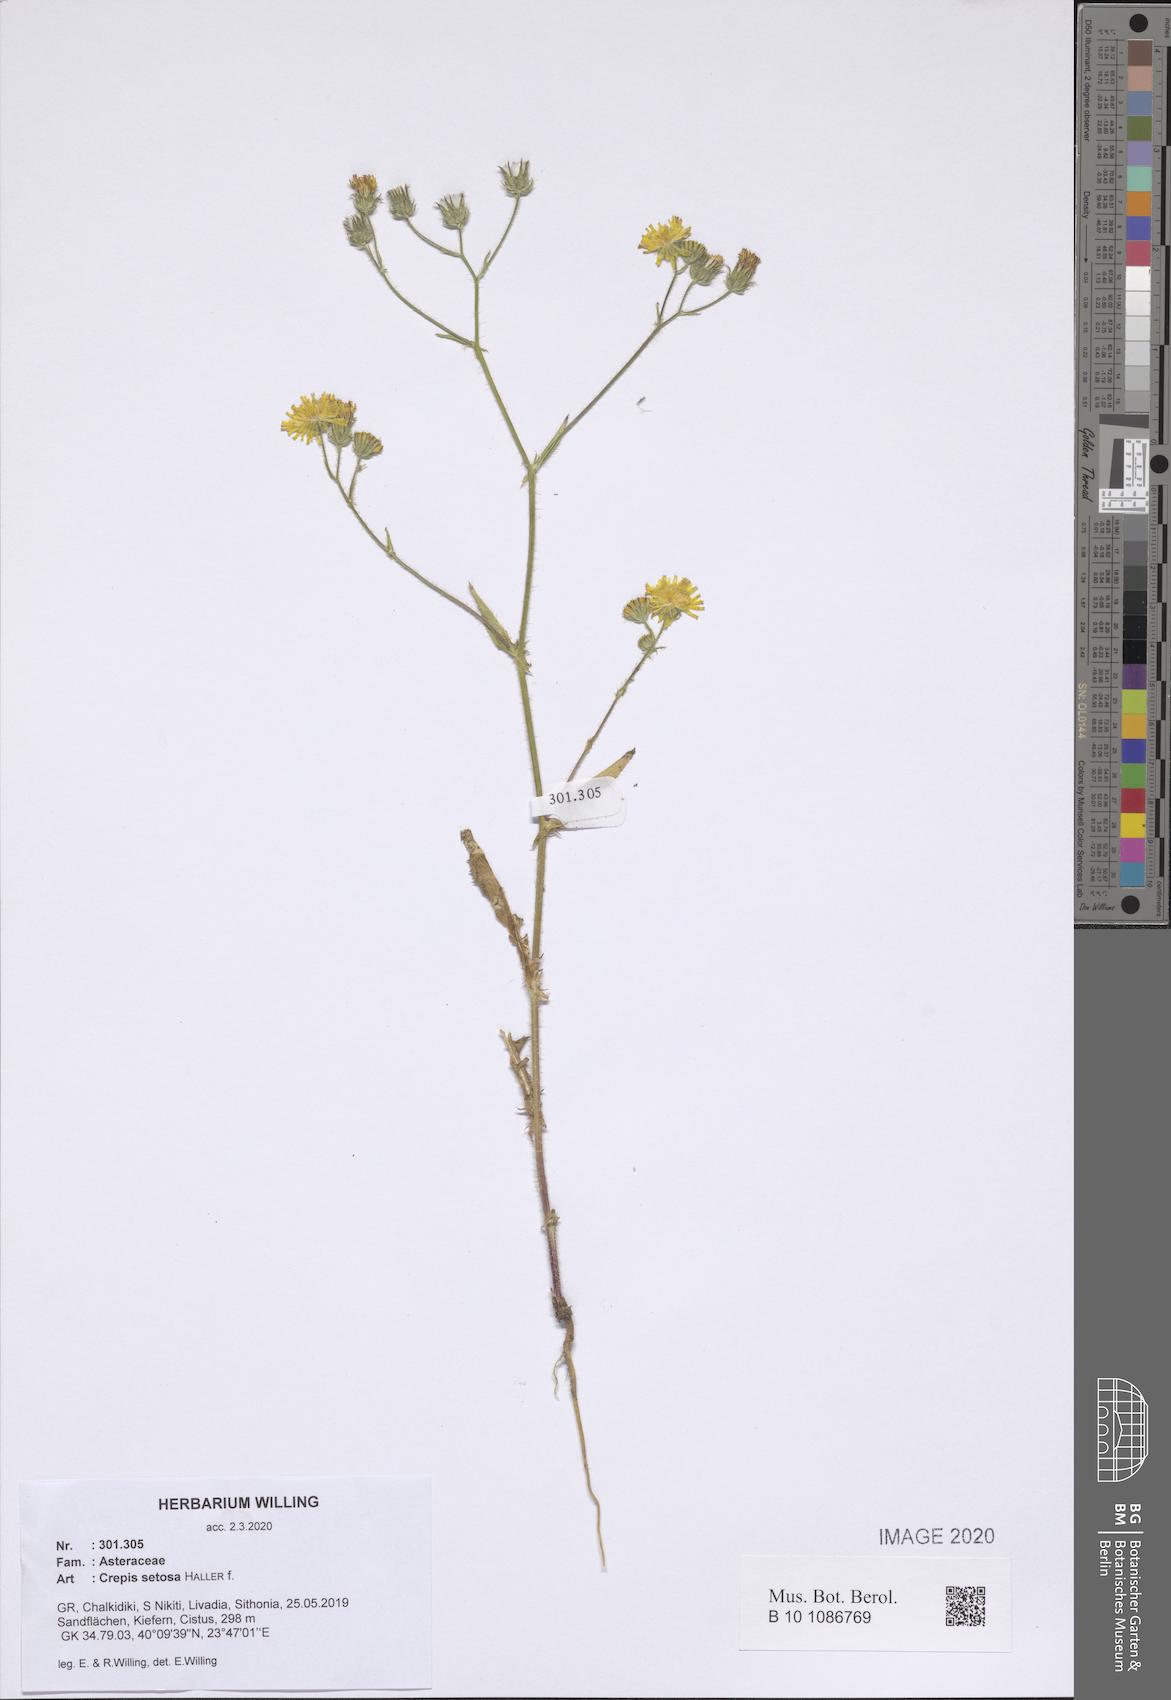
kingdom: Plantae
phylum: Tracheophyta
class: Magnoliopsida
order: Asterales
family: Asteraceae
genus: Crepis
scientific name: Crepis setosa
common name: Bristly hawk's-beard
